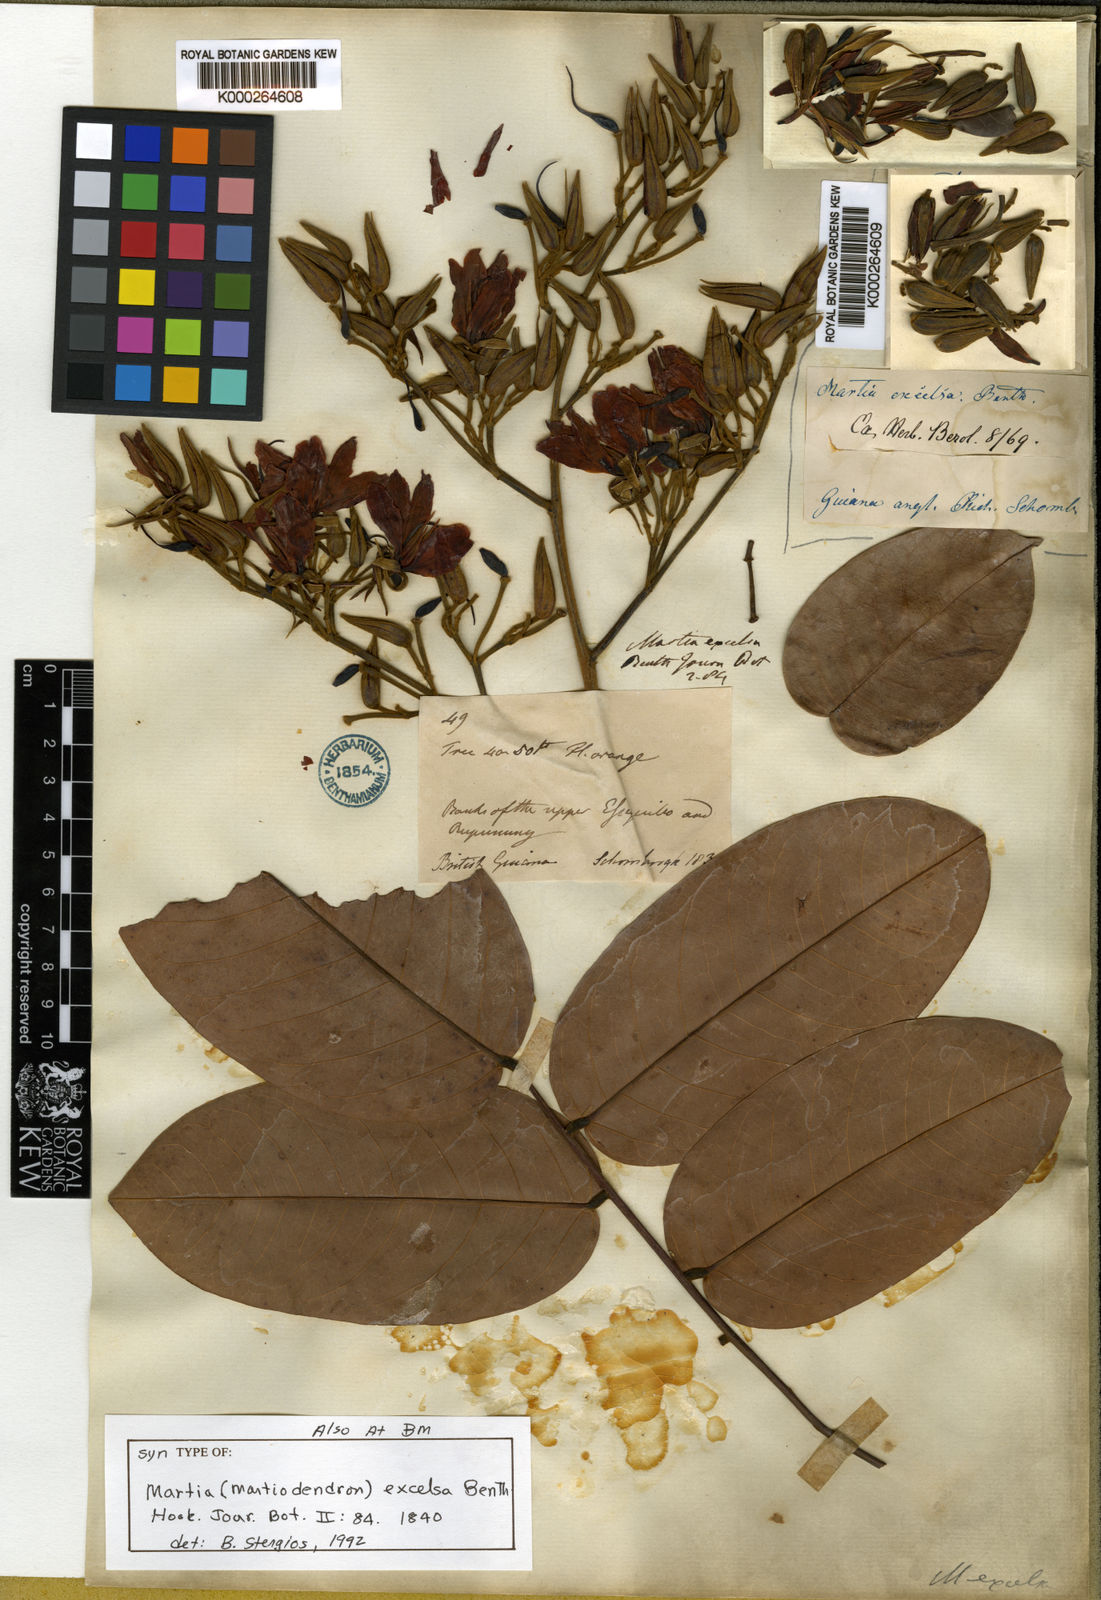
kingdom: Plantae
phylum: Tracheophyta
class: Magnoliopsida
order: Fabales
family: Fabaceae
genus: Martiodendron
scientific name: Martiodendron excelsum
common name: Tatabuballi
